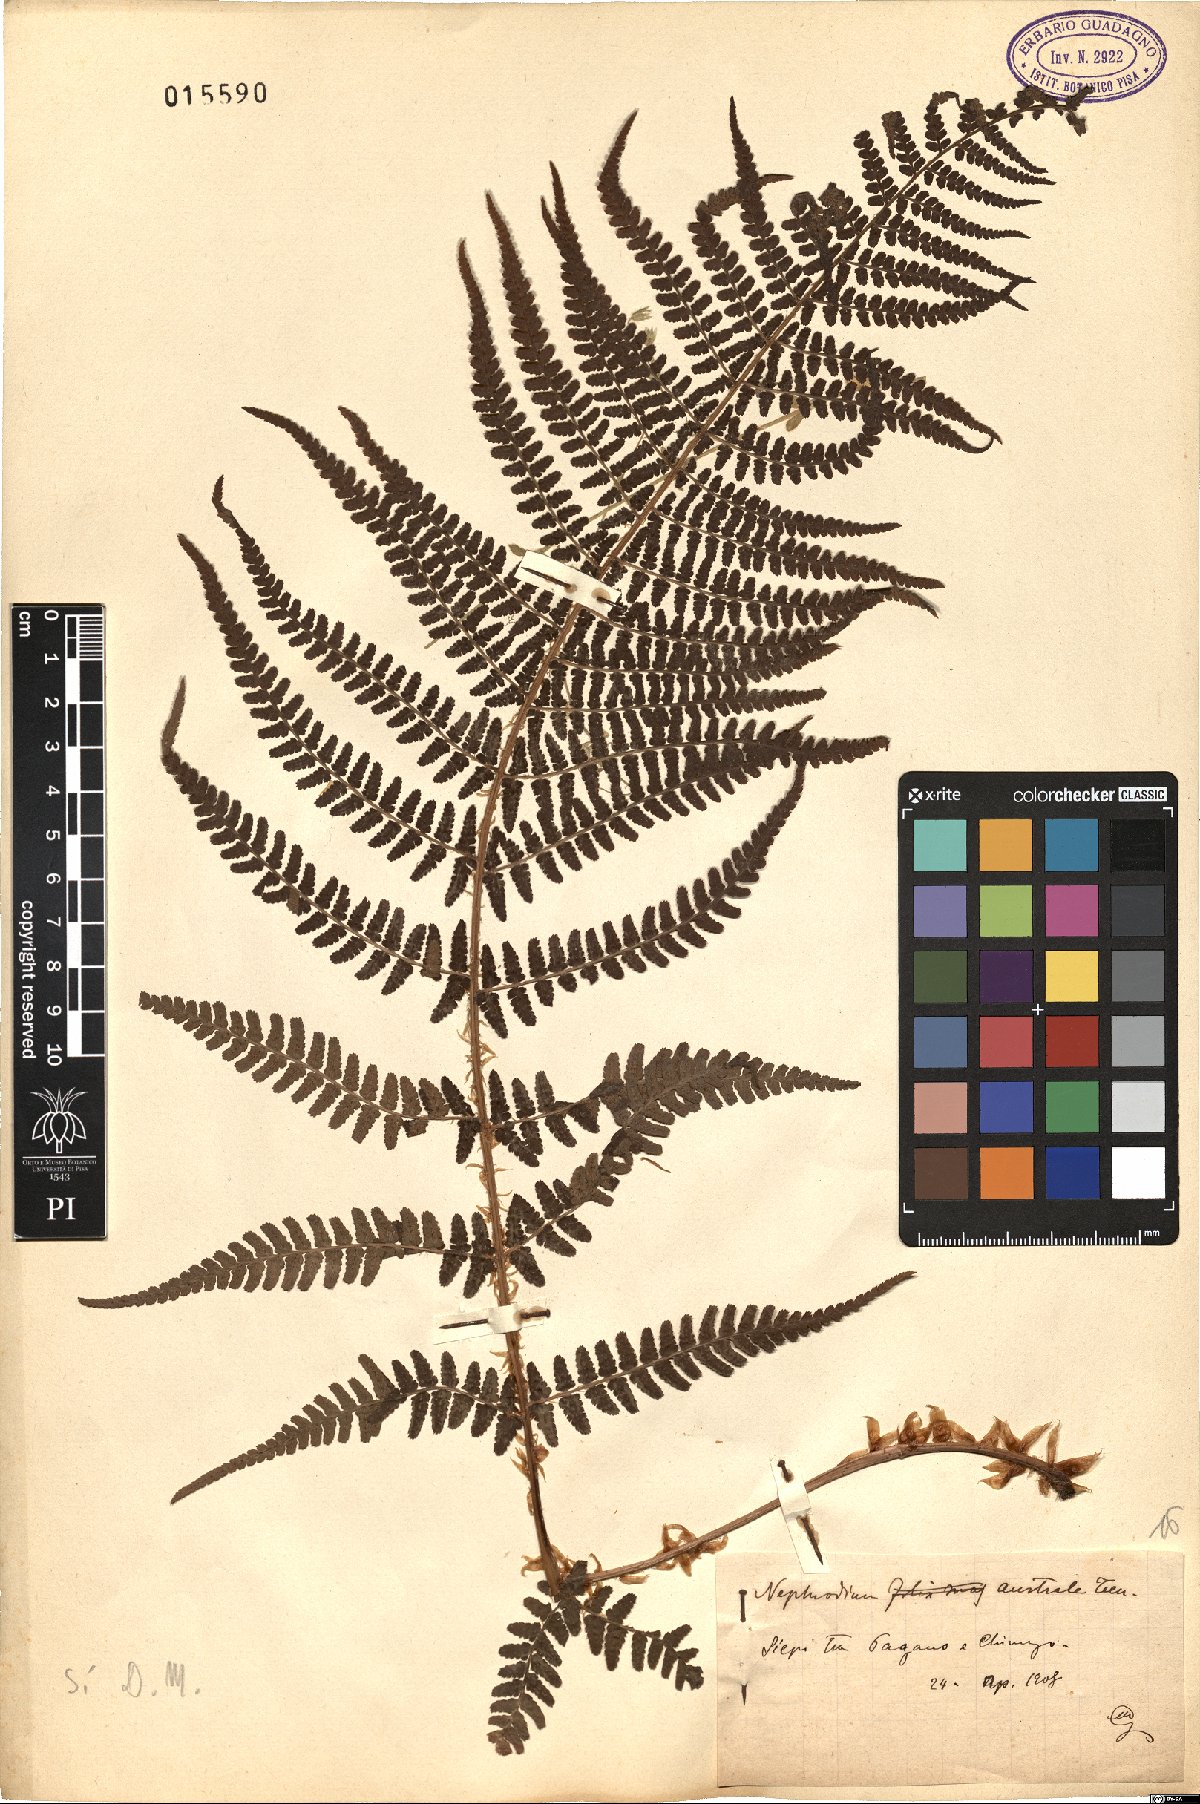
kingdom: Plantae
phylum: Tracheophyta
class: Polypodiopsida
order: Polypodiales
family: Dryopteridaceae
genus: Dryopteris
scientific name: Dryopteris pallida
